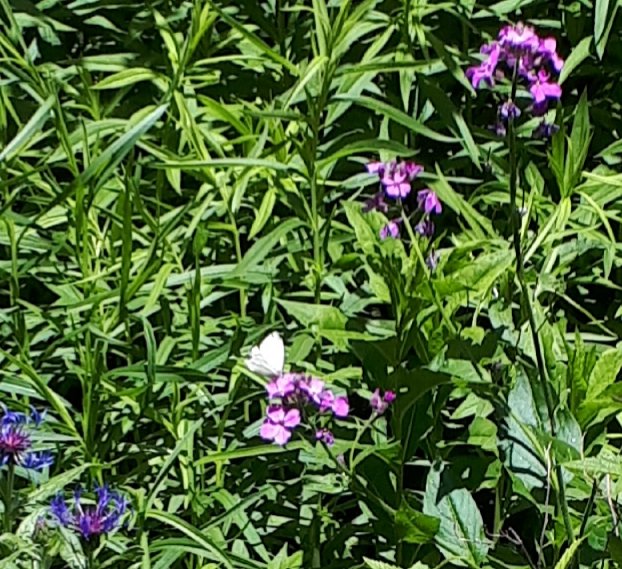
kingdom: Animalia
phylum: Arthropoda
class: Insecta
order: Lepidoptera
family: Pieridae
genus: Pieris
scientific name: Pieris rapae
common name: Cabbage White
